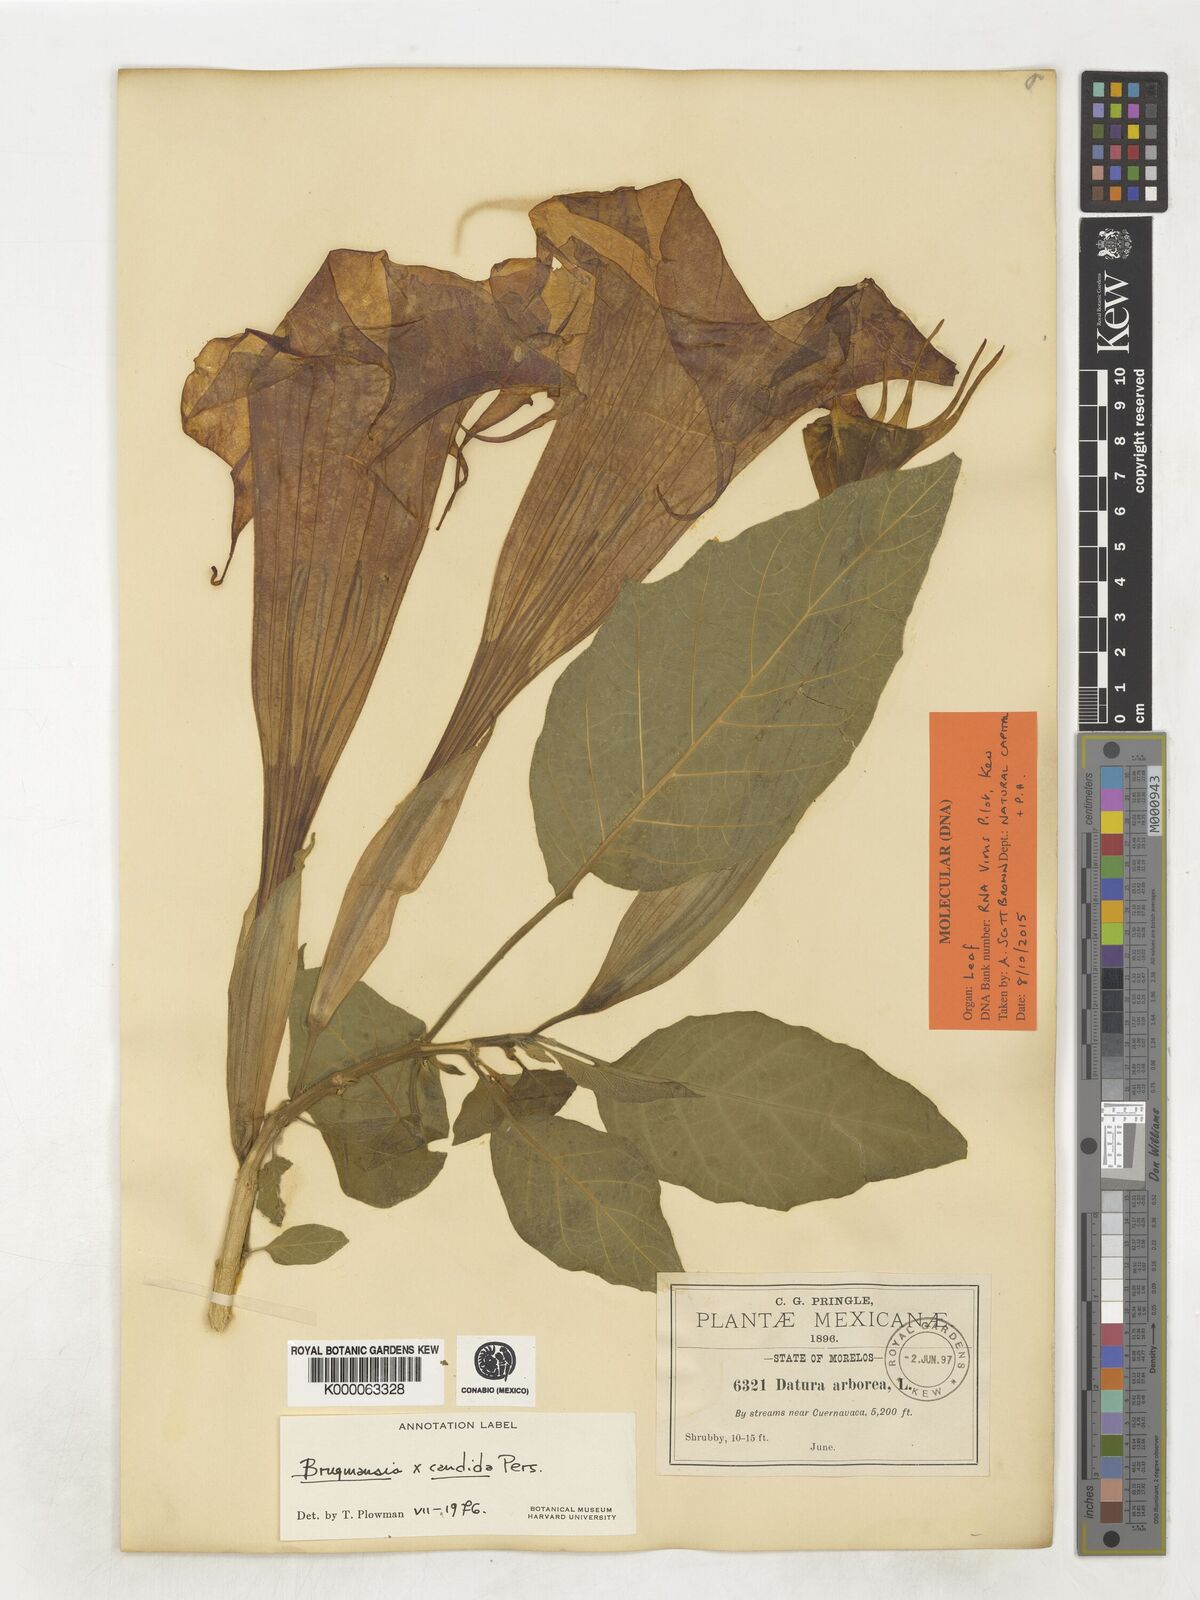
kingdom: Plantae
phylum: Tracheophyta
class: Magnoliopsida
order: Solanales
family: Solanaceae
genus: Brugmansia
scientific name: Brugmansia candida
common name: Angel's-trumpet
